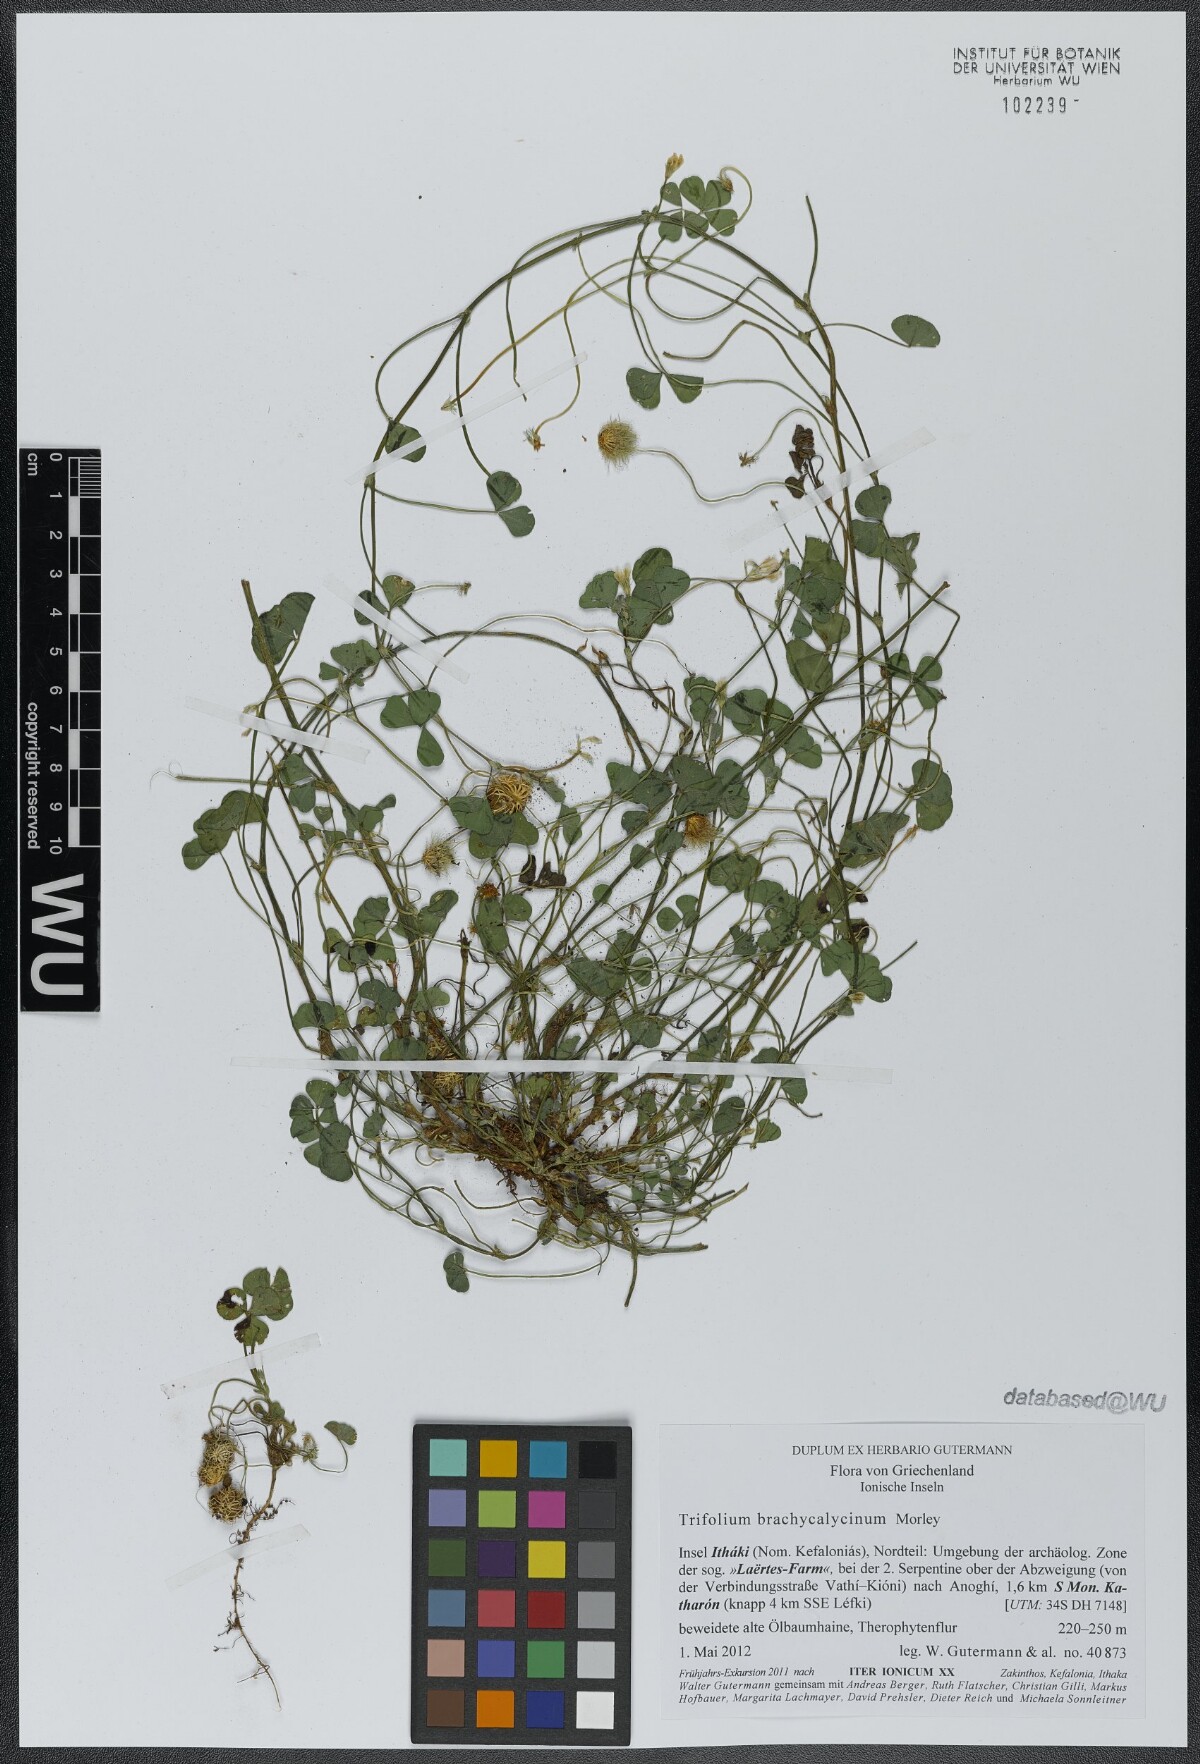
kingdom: Plantae
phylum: Tracheophyta
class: Magnoliopsida
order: Fabales
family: Fabaceae
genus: Trifolium
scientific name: Trifolium subterraneum
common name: Subterranean clover
